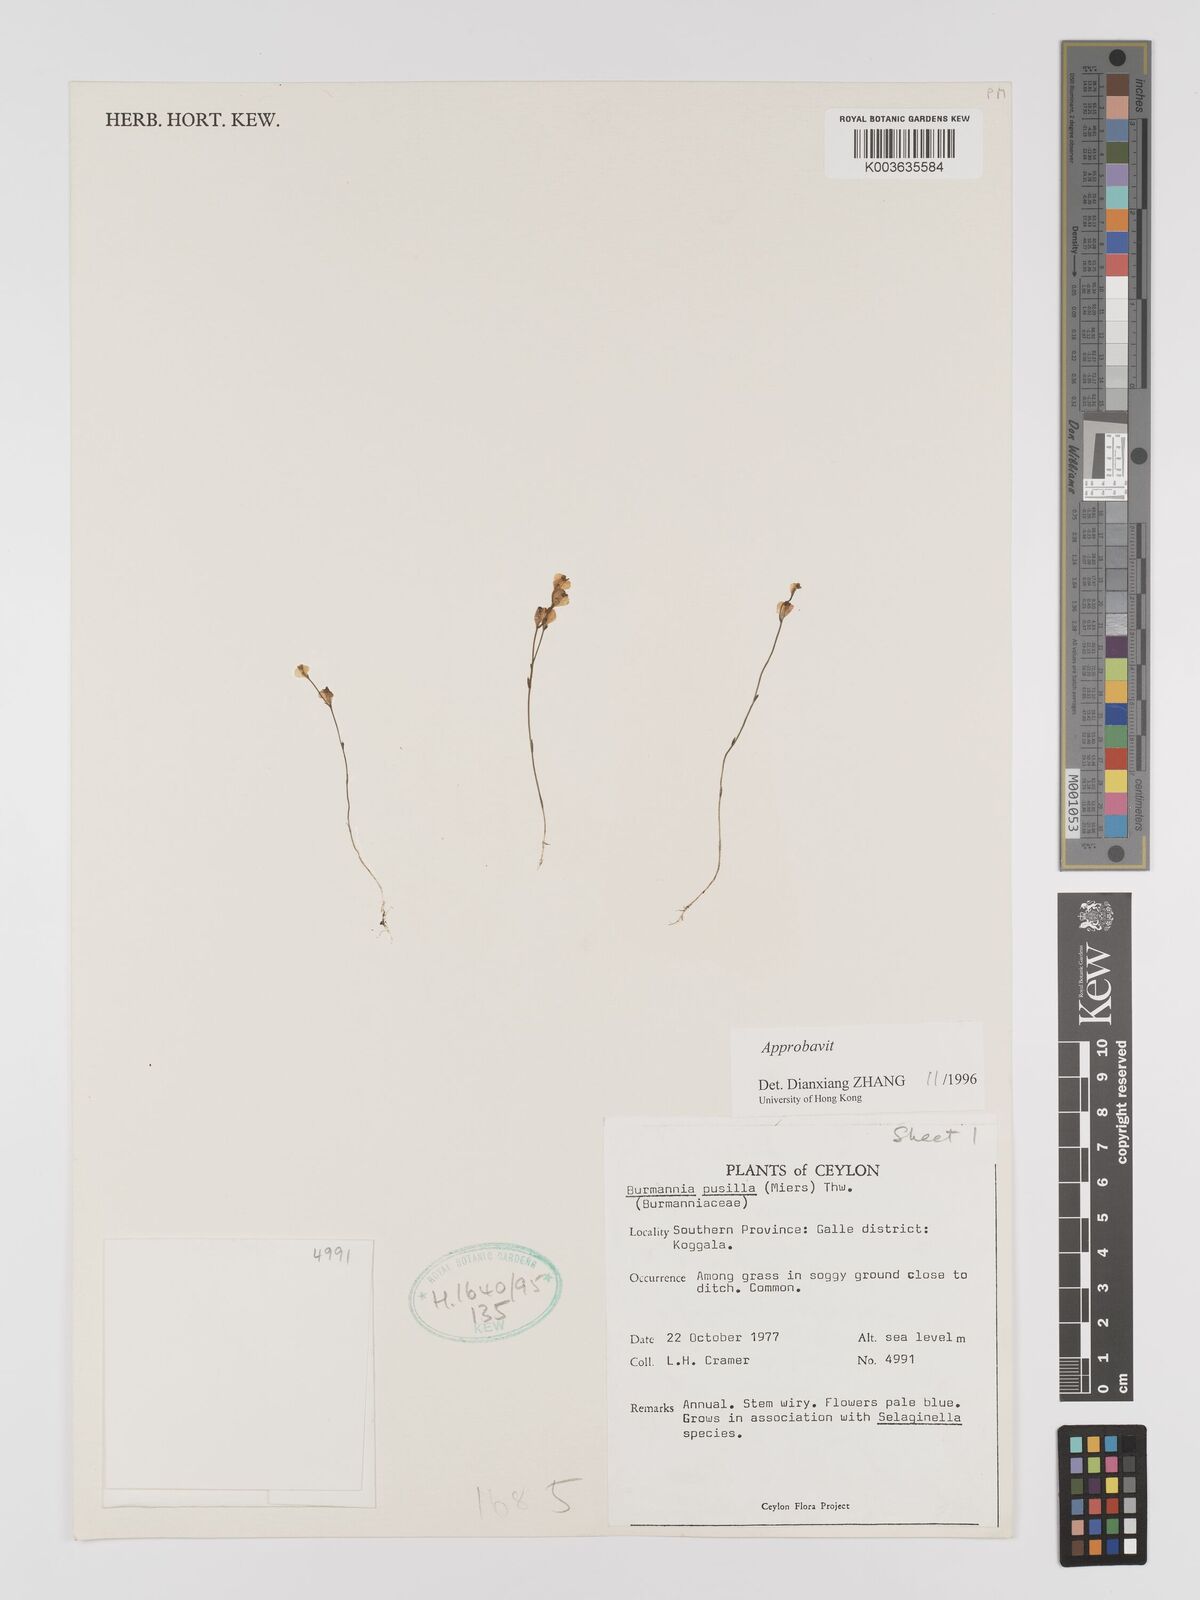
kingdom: Plantae
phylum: Tracheophyta
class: Liliopsida
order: Dioscoreales
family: Burmanniaceae
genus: Burmannia
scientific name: Burmannia pusilla
